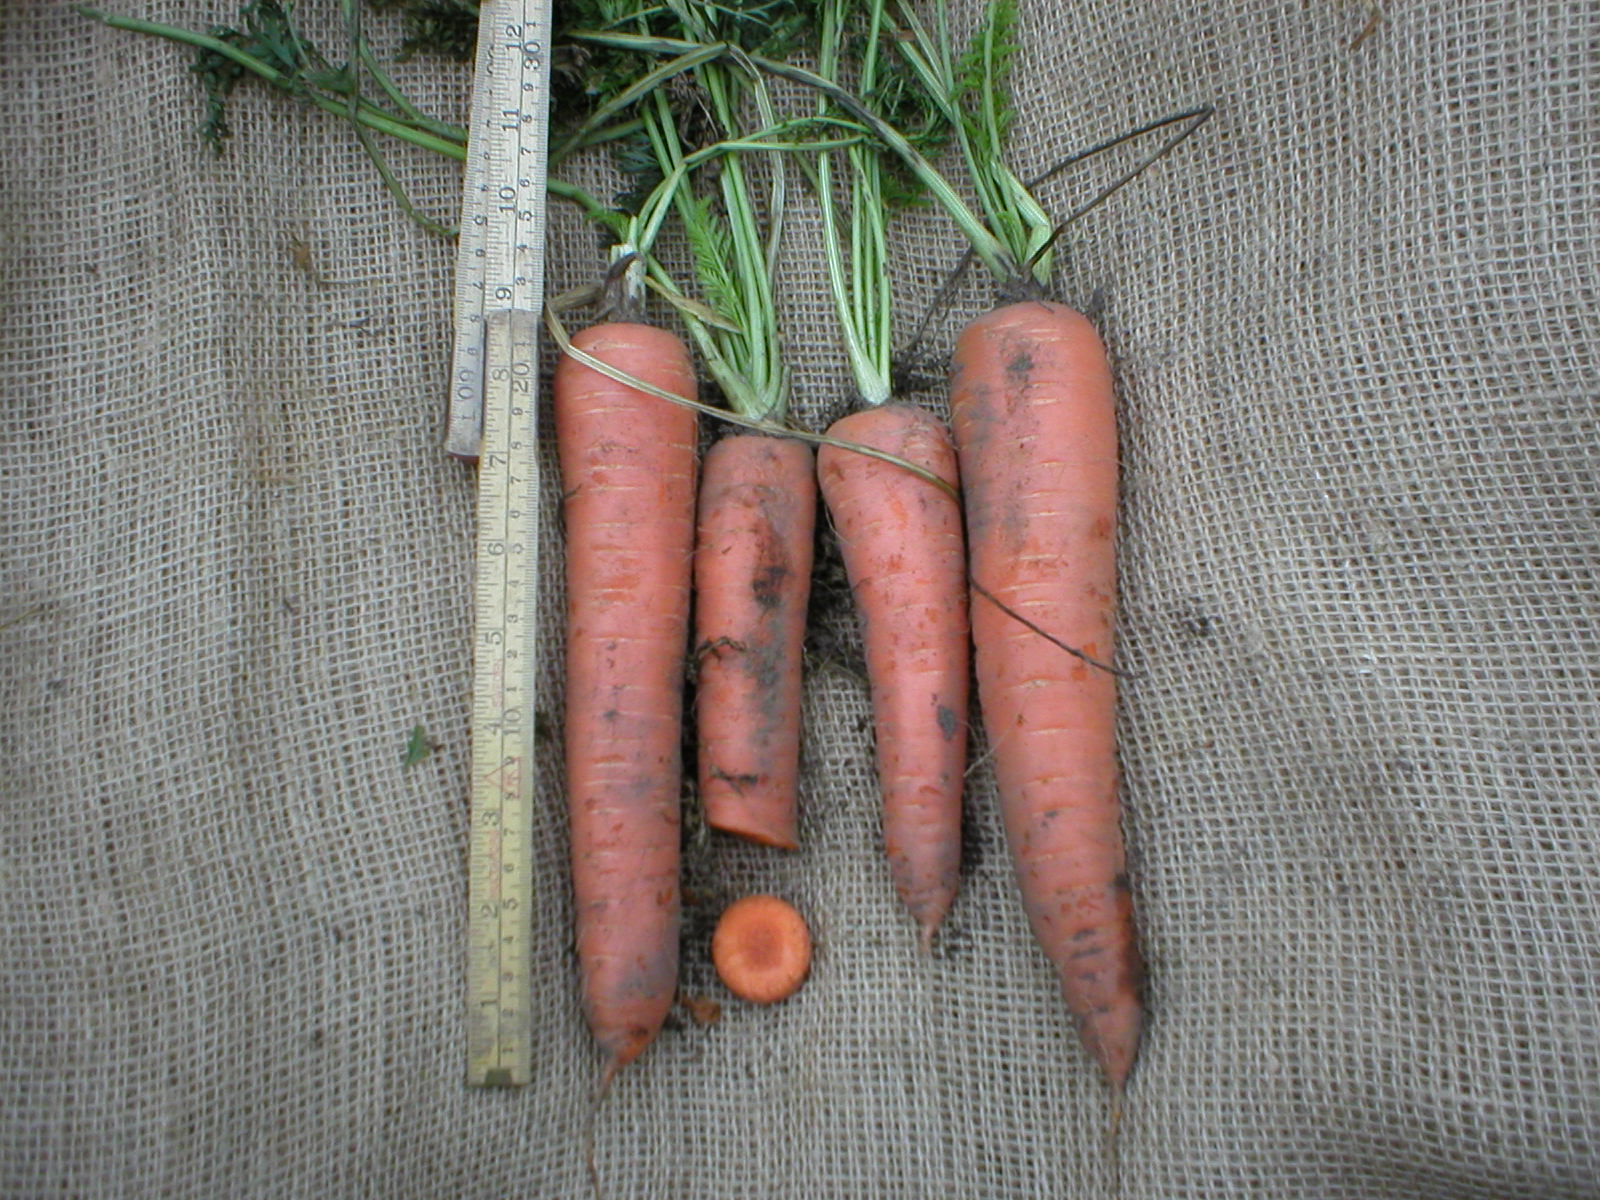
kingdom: Plantae
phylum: Tracheophyta
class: Magnoliopsida
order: Apiales
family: Apiaceae
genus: Daucus
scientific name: Daucus carota
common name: Wild carrot
